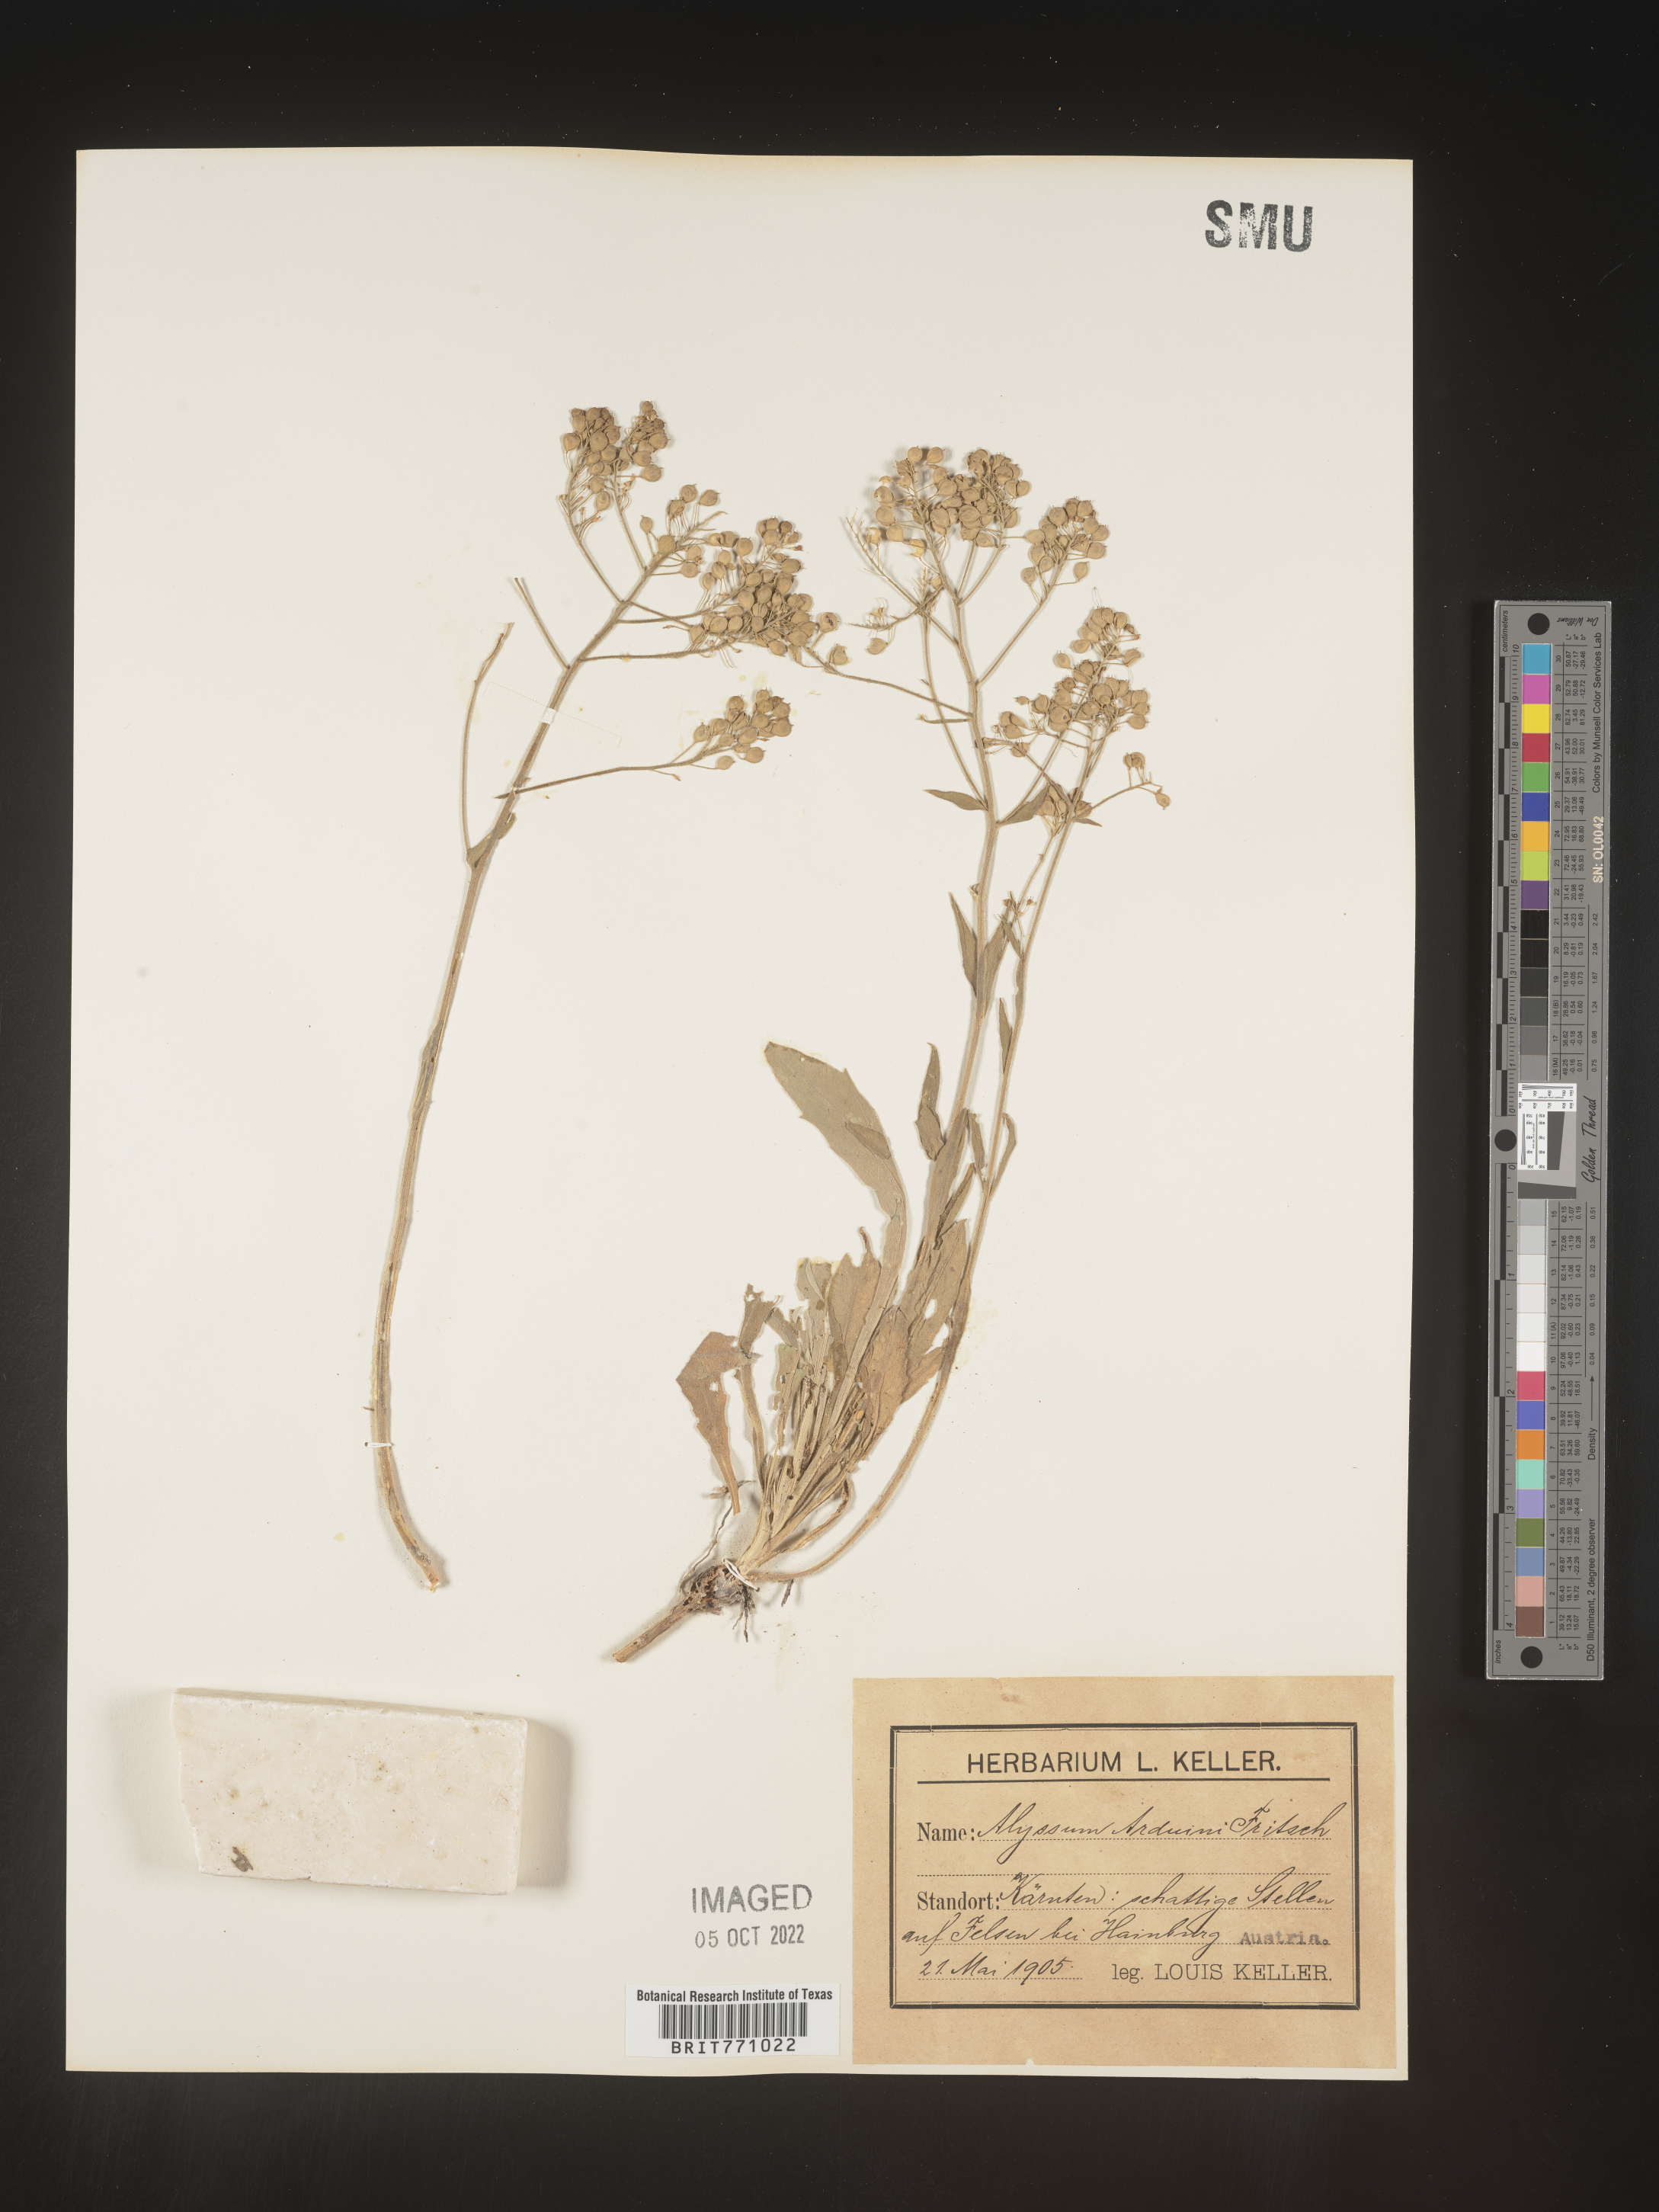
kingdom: Plantae
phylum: Tracheophyta
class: Magnoliopsida
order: Brassicales
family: Brassicaceae
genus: Alyssum
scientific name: Alyssum
